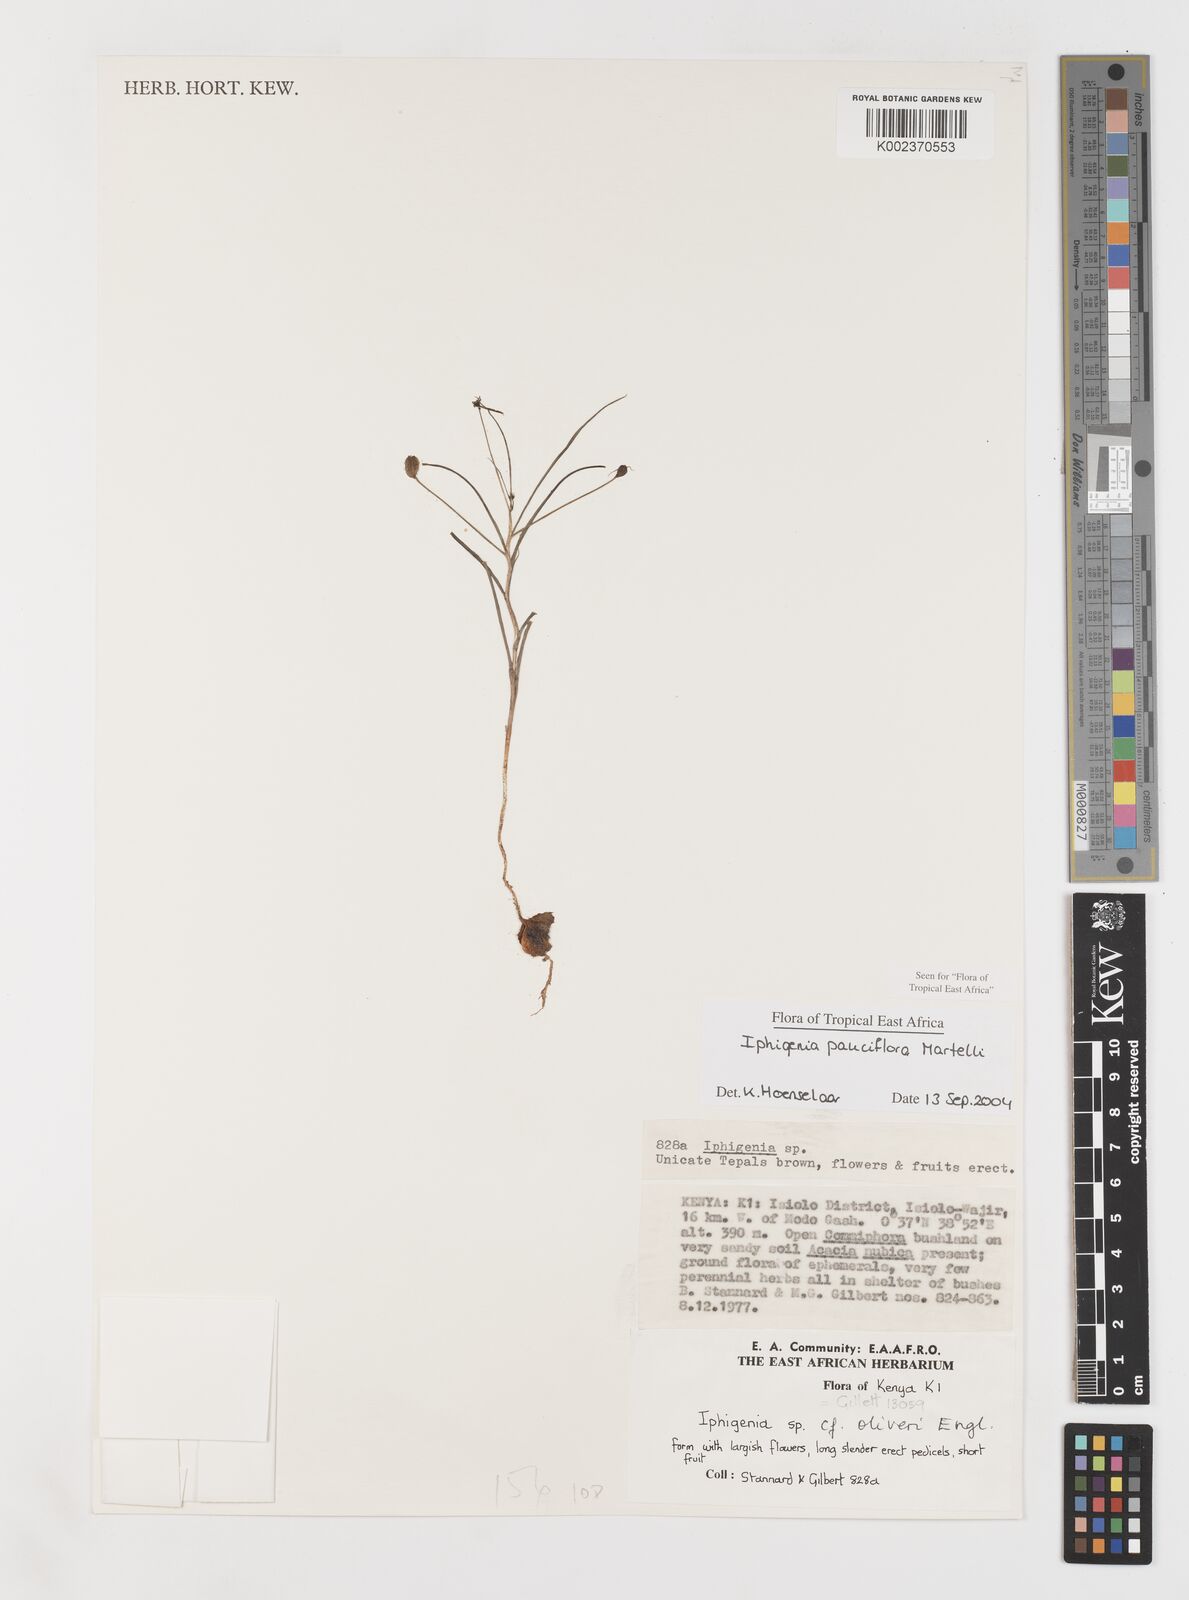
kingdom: Plantae
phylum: Tracheophyta
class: Liliopsida
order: Liliales
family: Colchicaceae
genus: Iphigenia
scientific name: Iphigenia pauciflora
